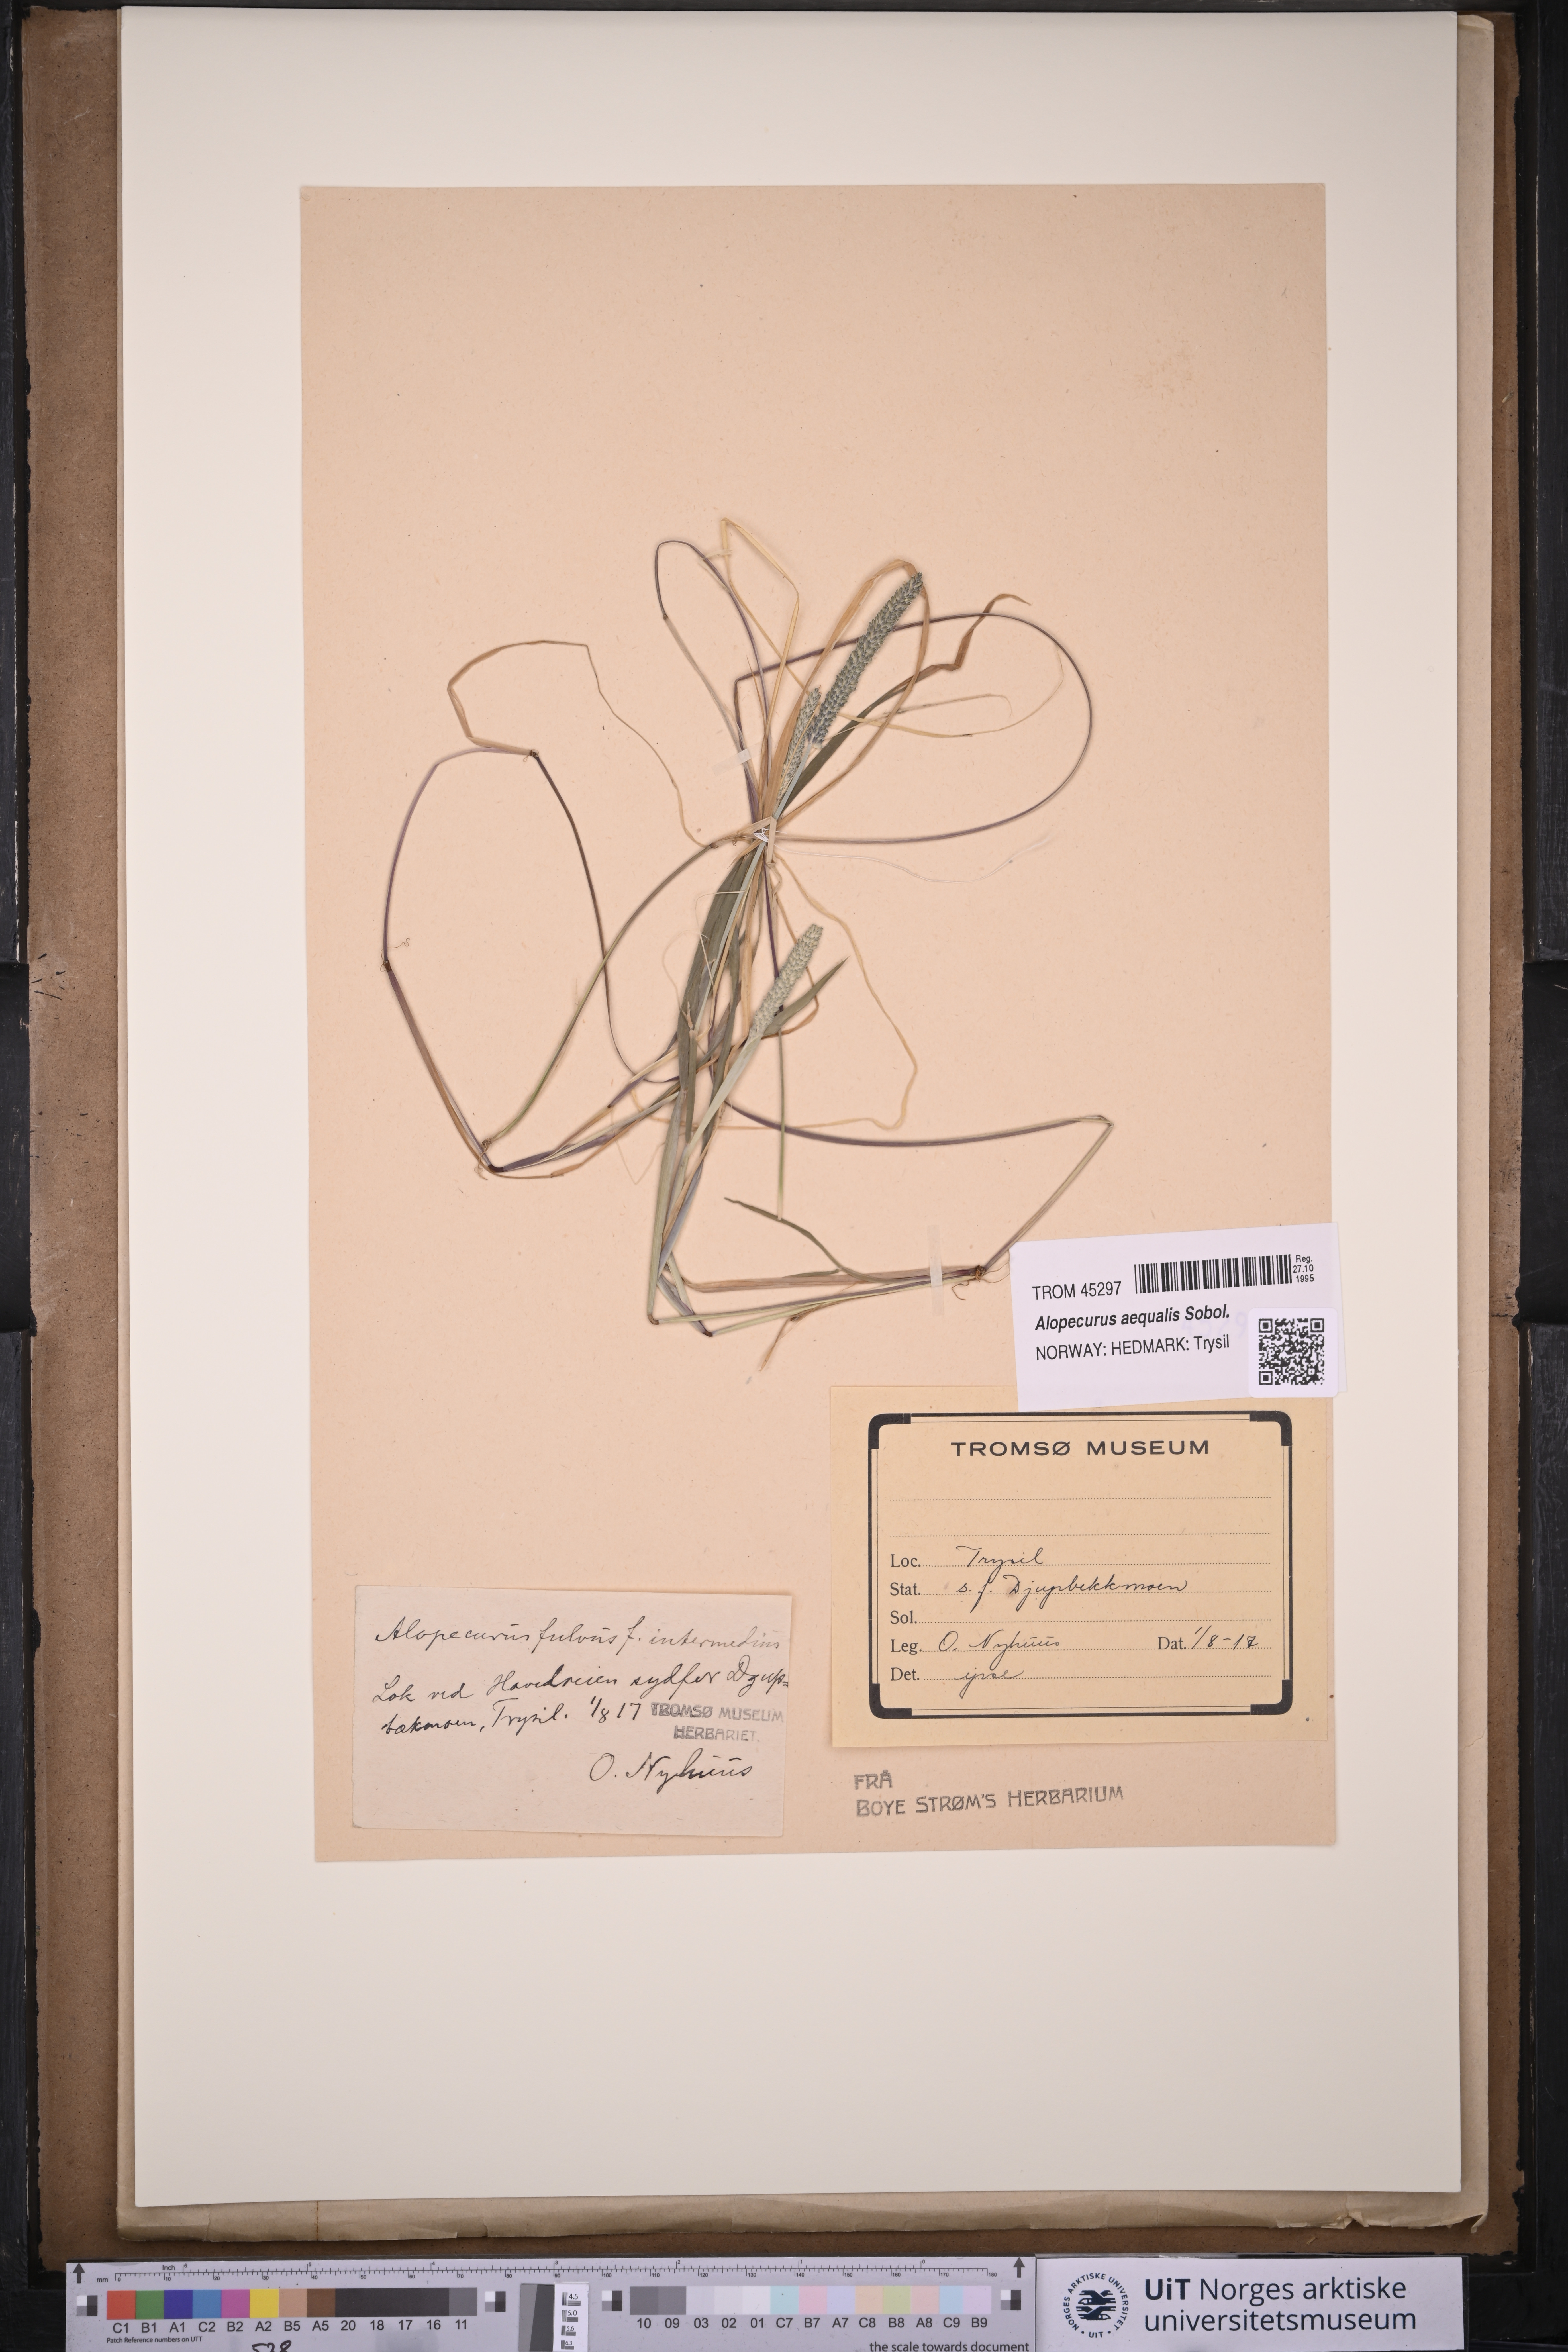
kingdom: Plantae
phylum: Tracheophyta
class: Liliopsida
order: Poales
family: Poaceae
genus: Alopecurus
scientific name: Alopecurus aequalis
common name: Orange foxtail
